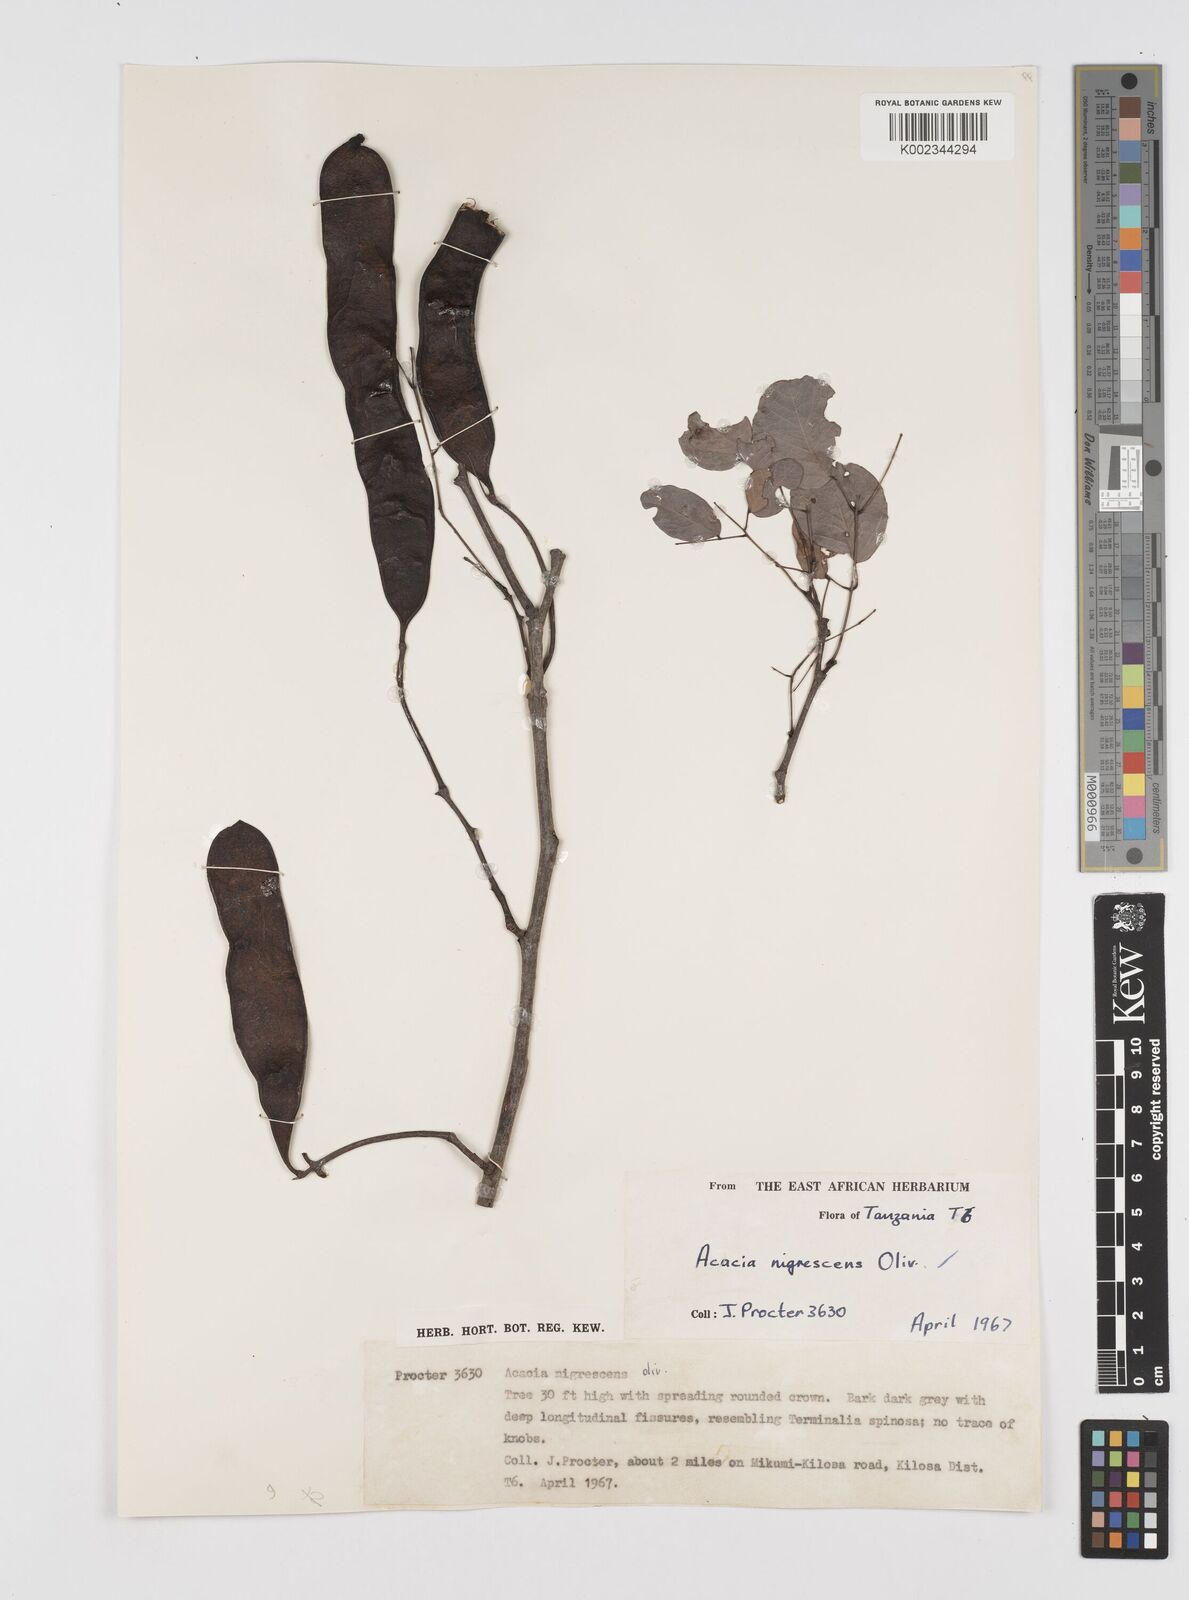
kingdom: Plantae
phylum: Tracheophyta
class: Magnoliopsida
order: Fabales
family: Fabaceae
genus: Senegalia
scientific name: Senegalia nigrescens
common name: Knobthorn
